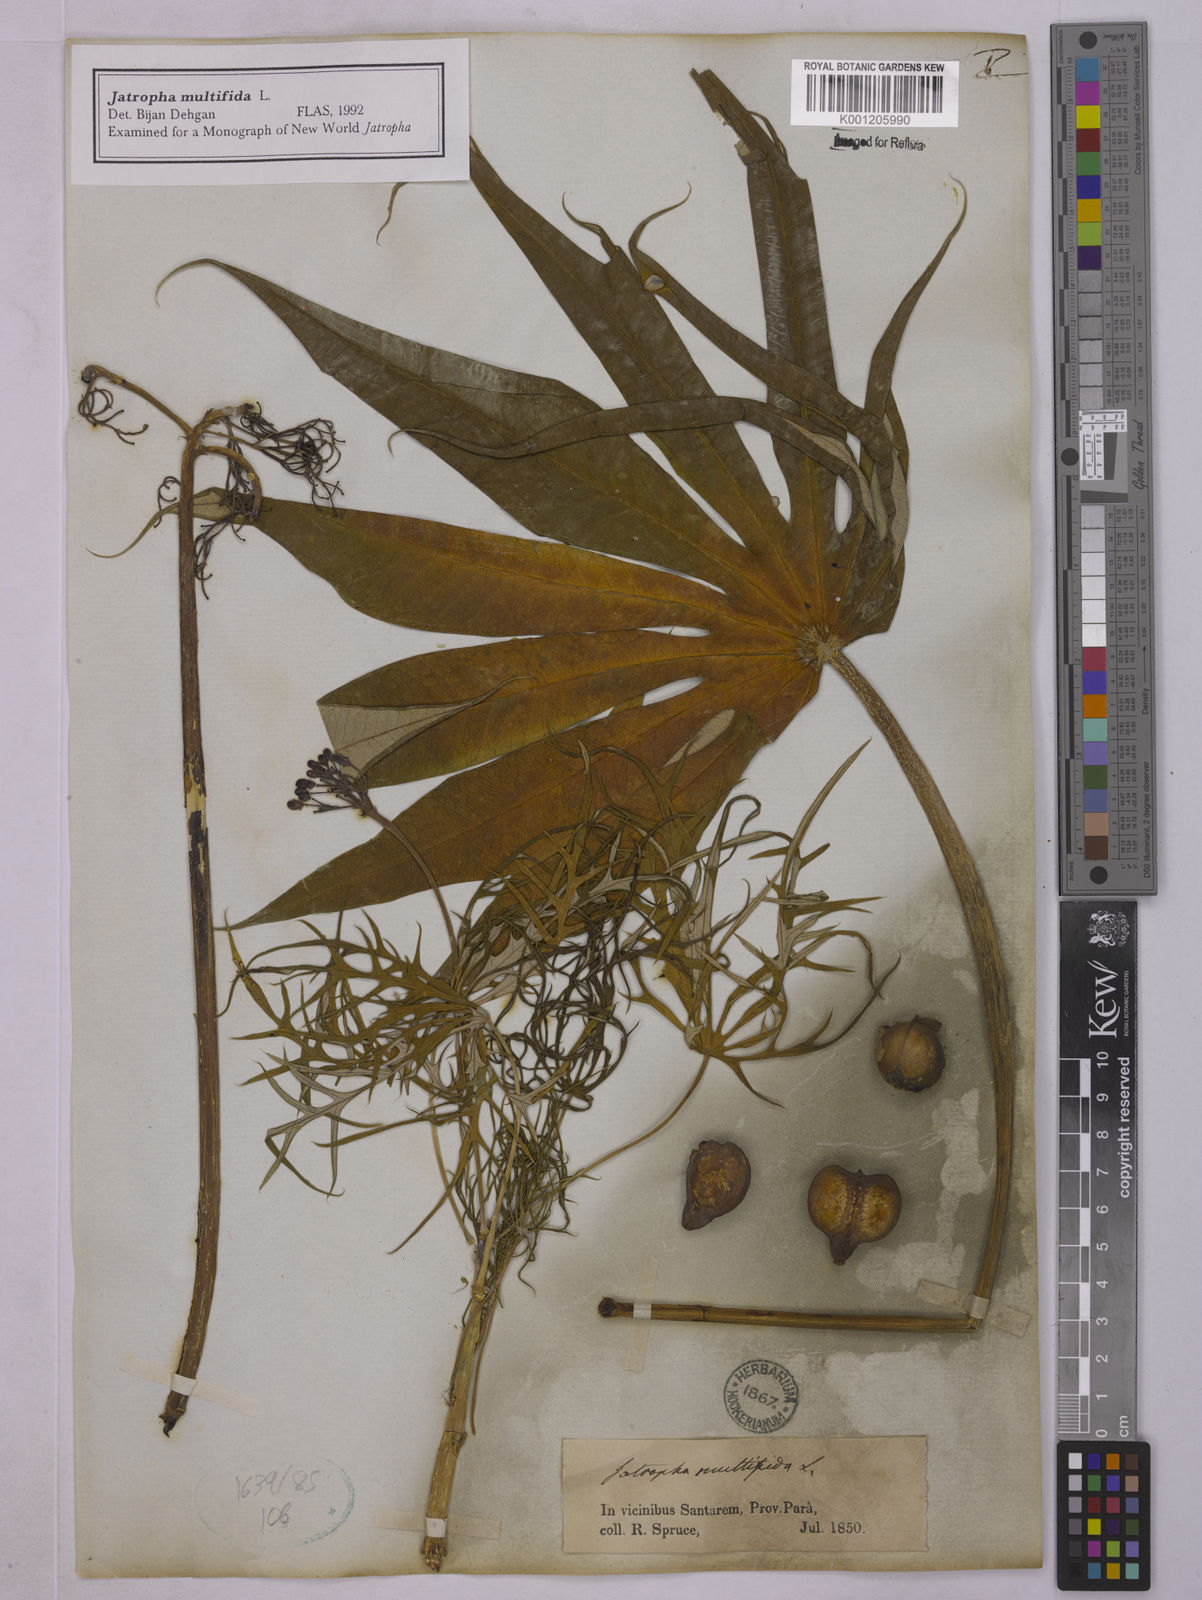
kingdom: Plantae
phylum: Tracheophyta
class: Magnoliopsida
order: Malpighiales
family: Euphorbiaceae
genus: Jatropha
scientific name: Jatropha multifida
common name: Coralbush
